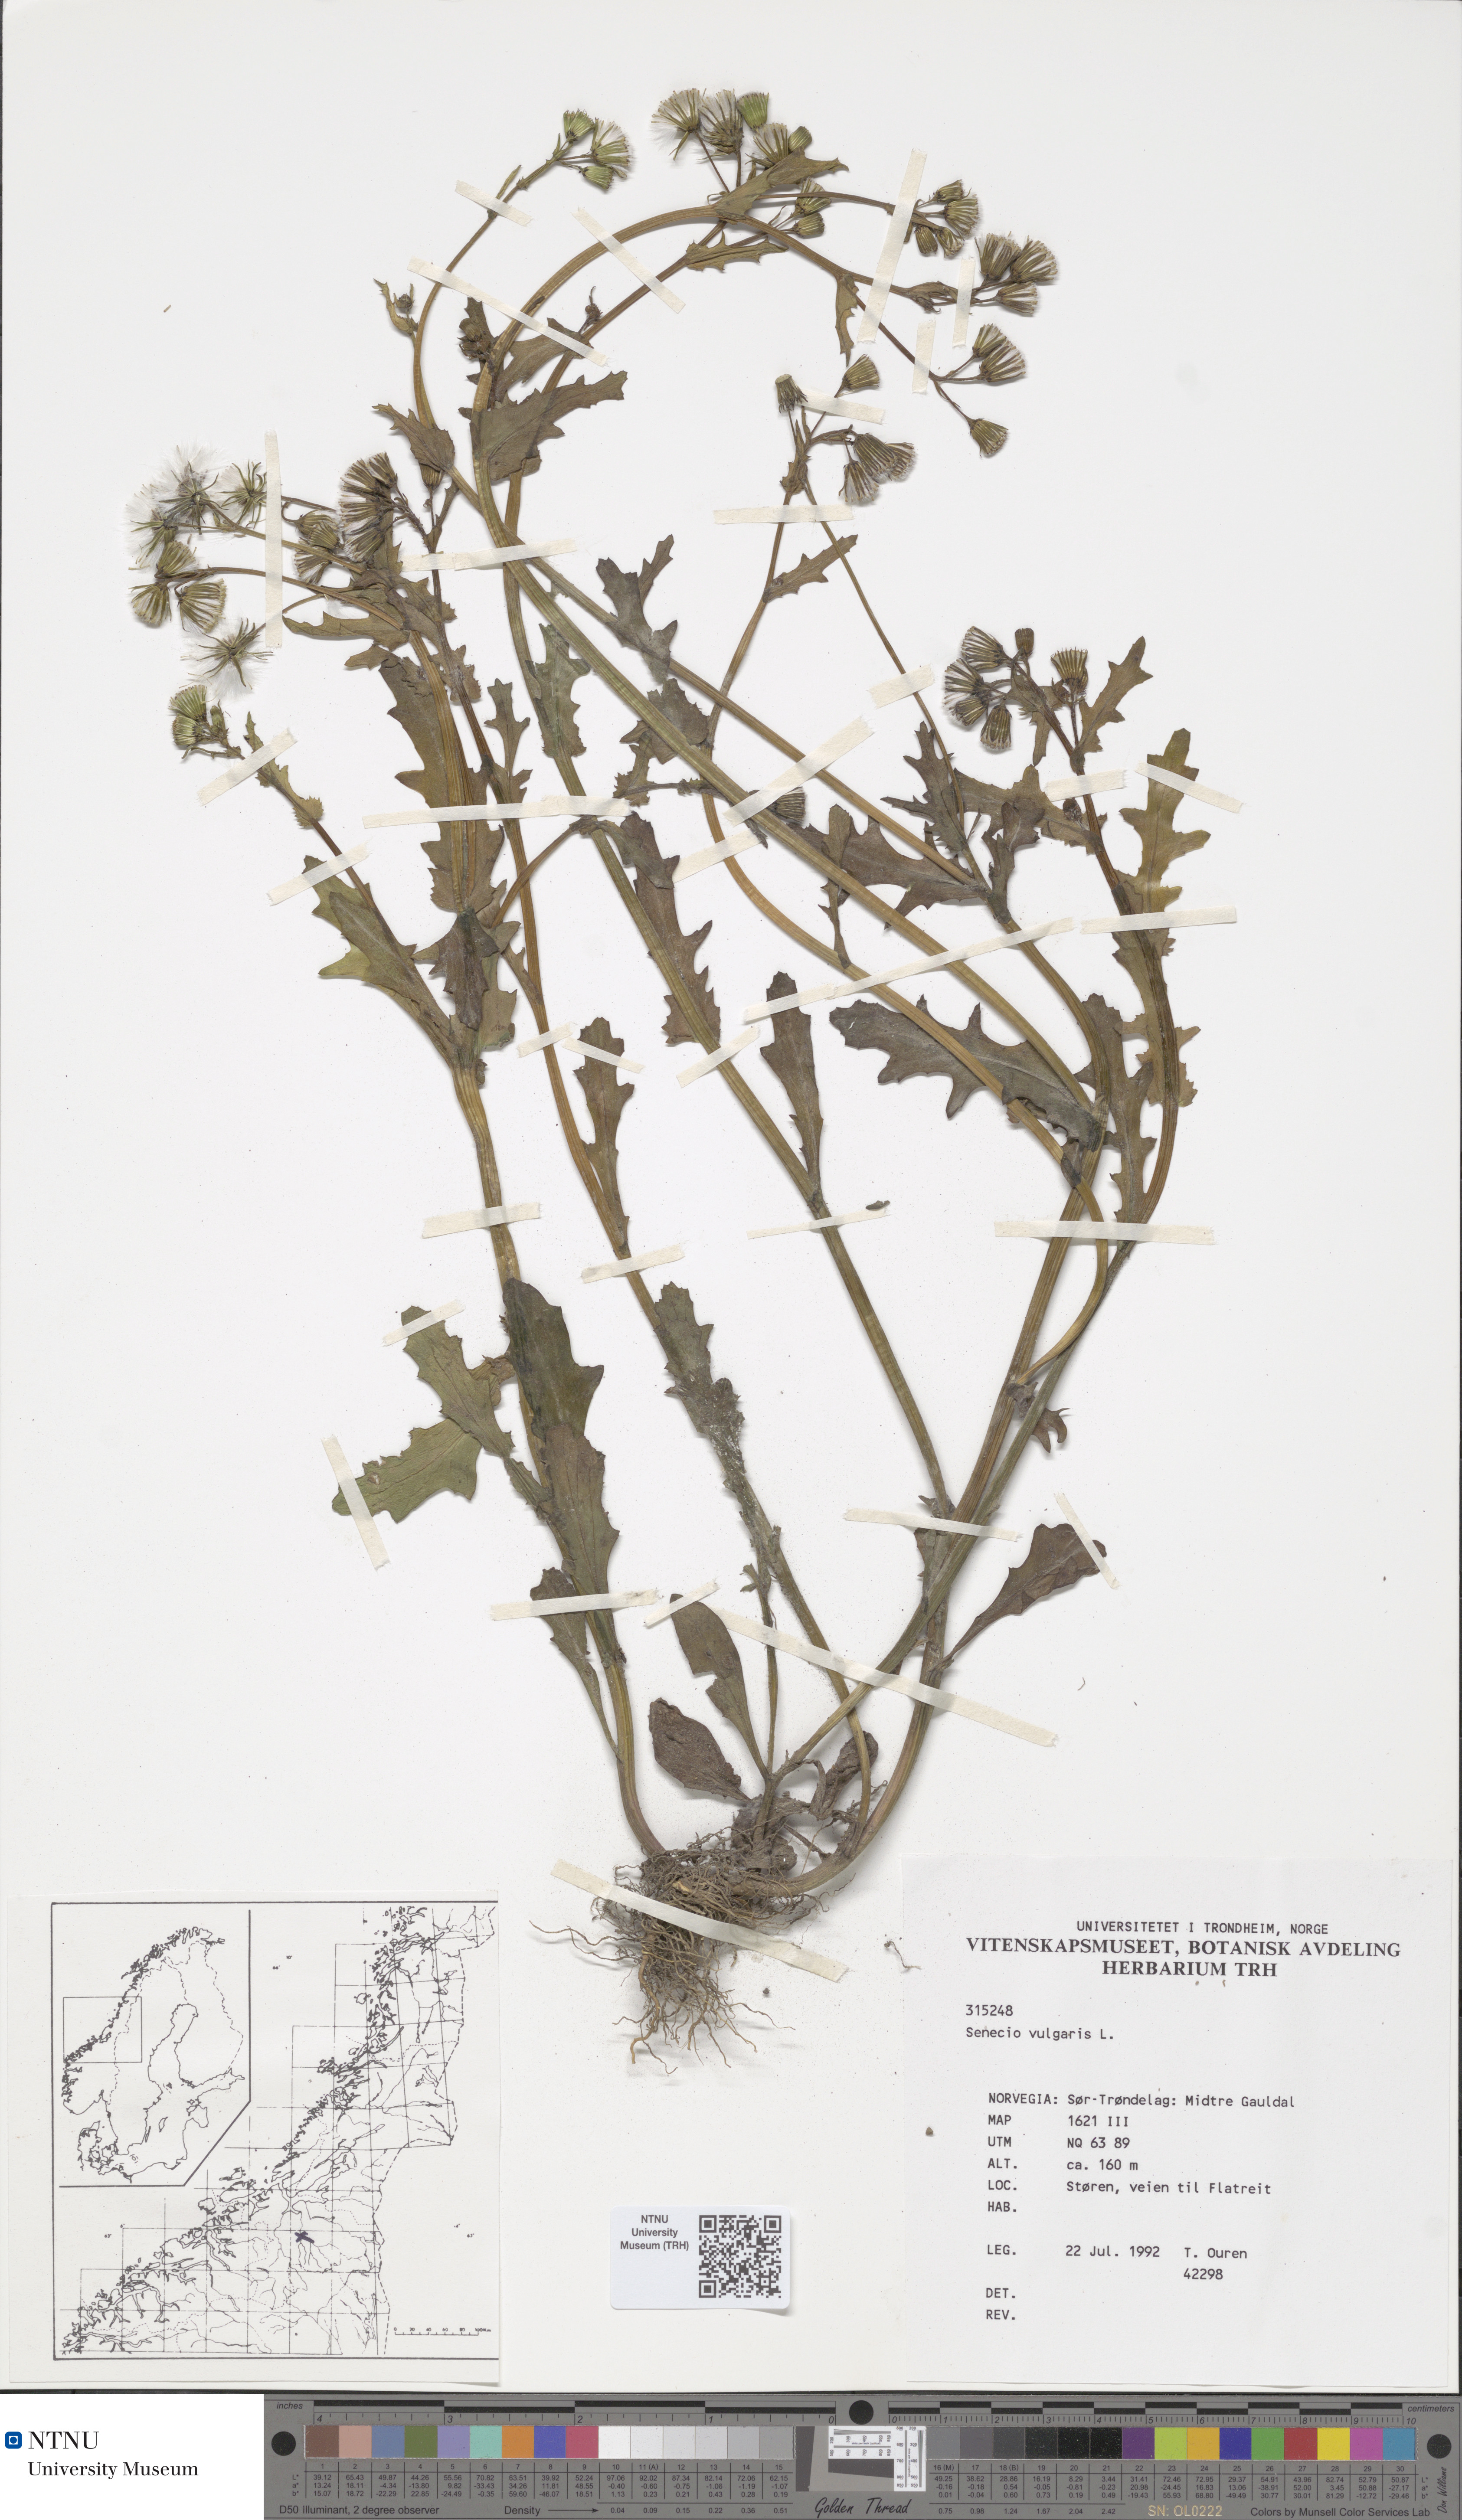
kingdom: Plantae
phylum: Tracheophyta
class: Magnoliopsida
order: Asterales
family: Asteraceae
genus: Senecio
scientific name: Senecio vulgaris
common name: Old-man-in-the-spring
